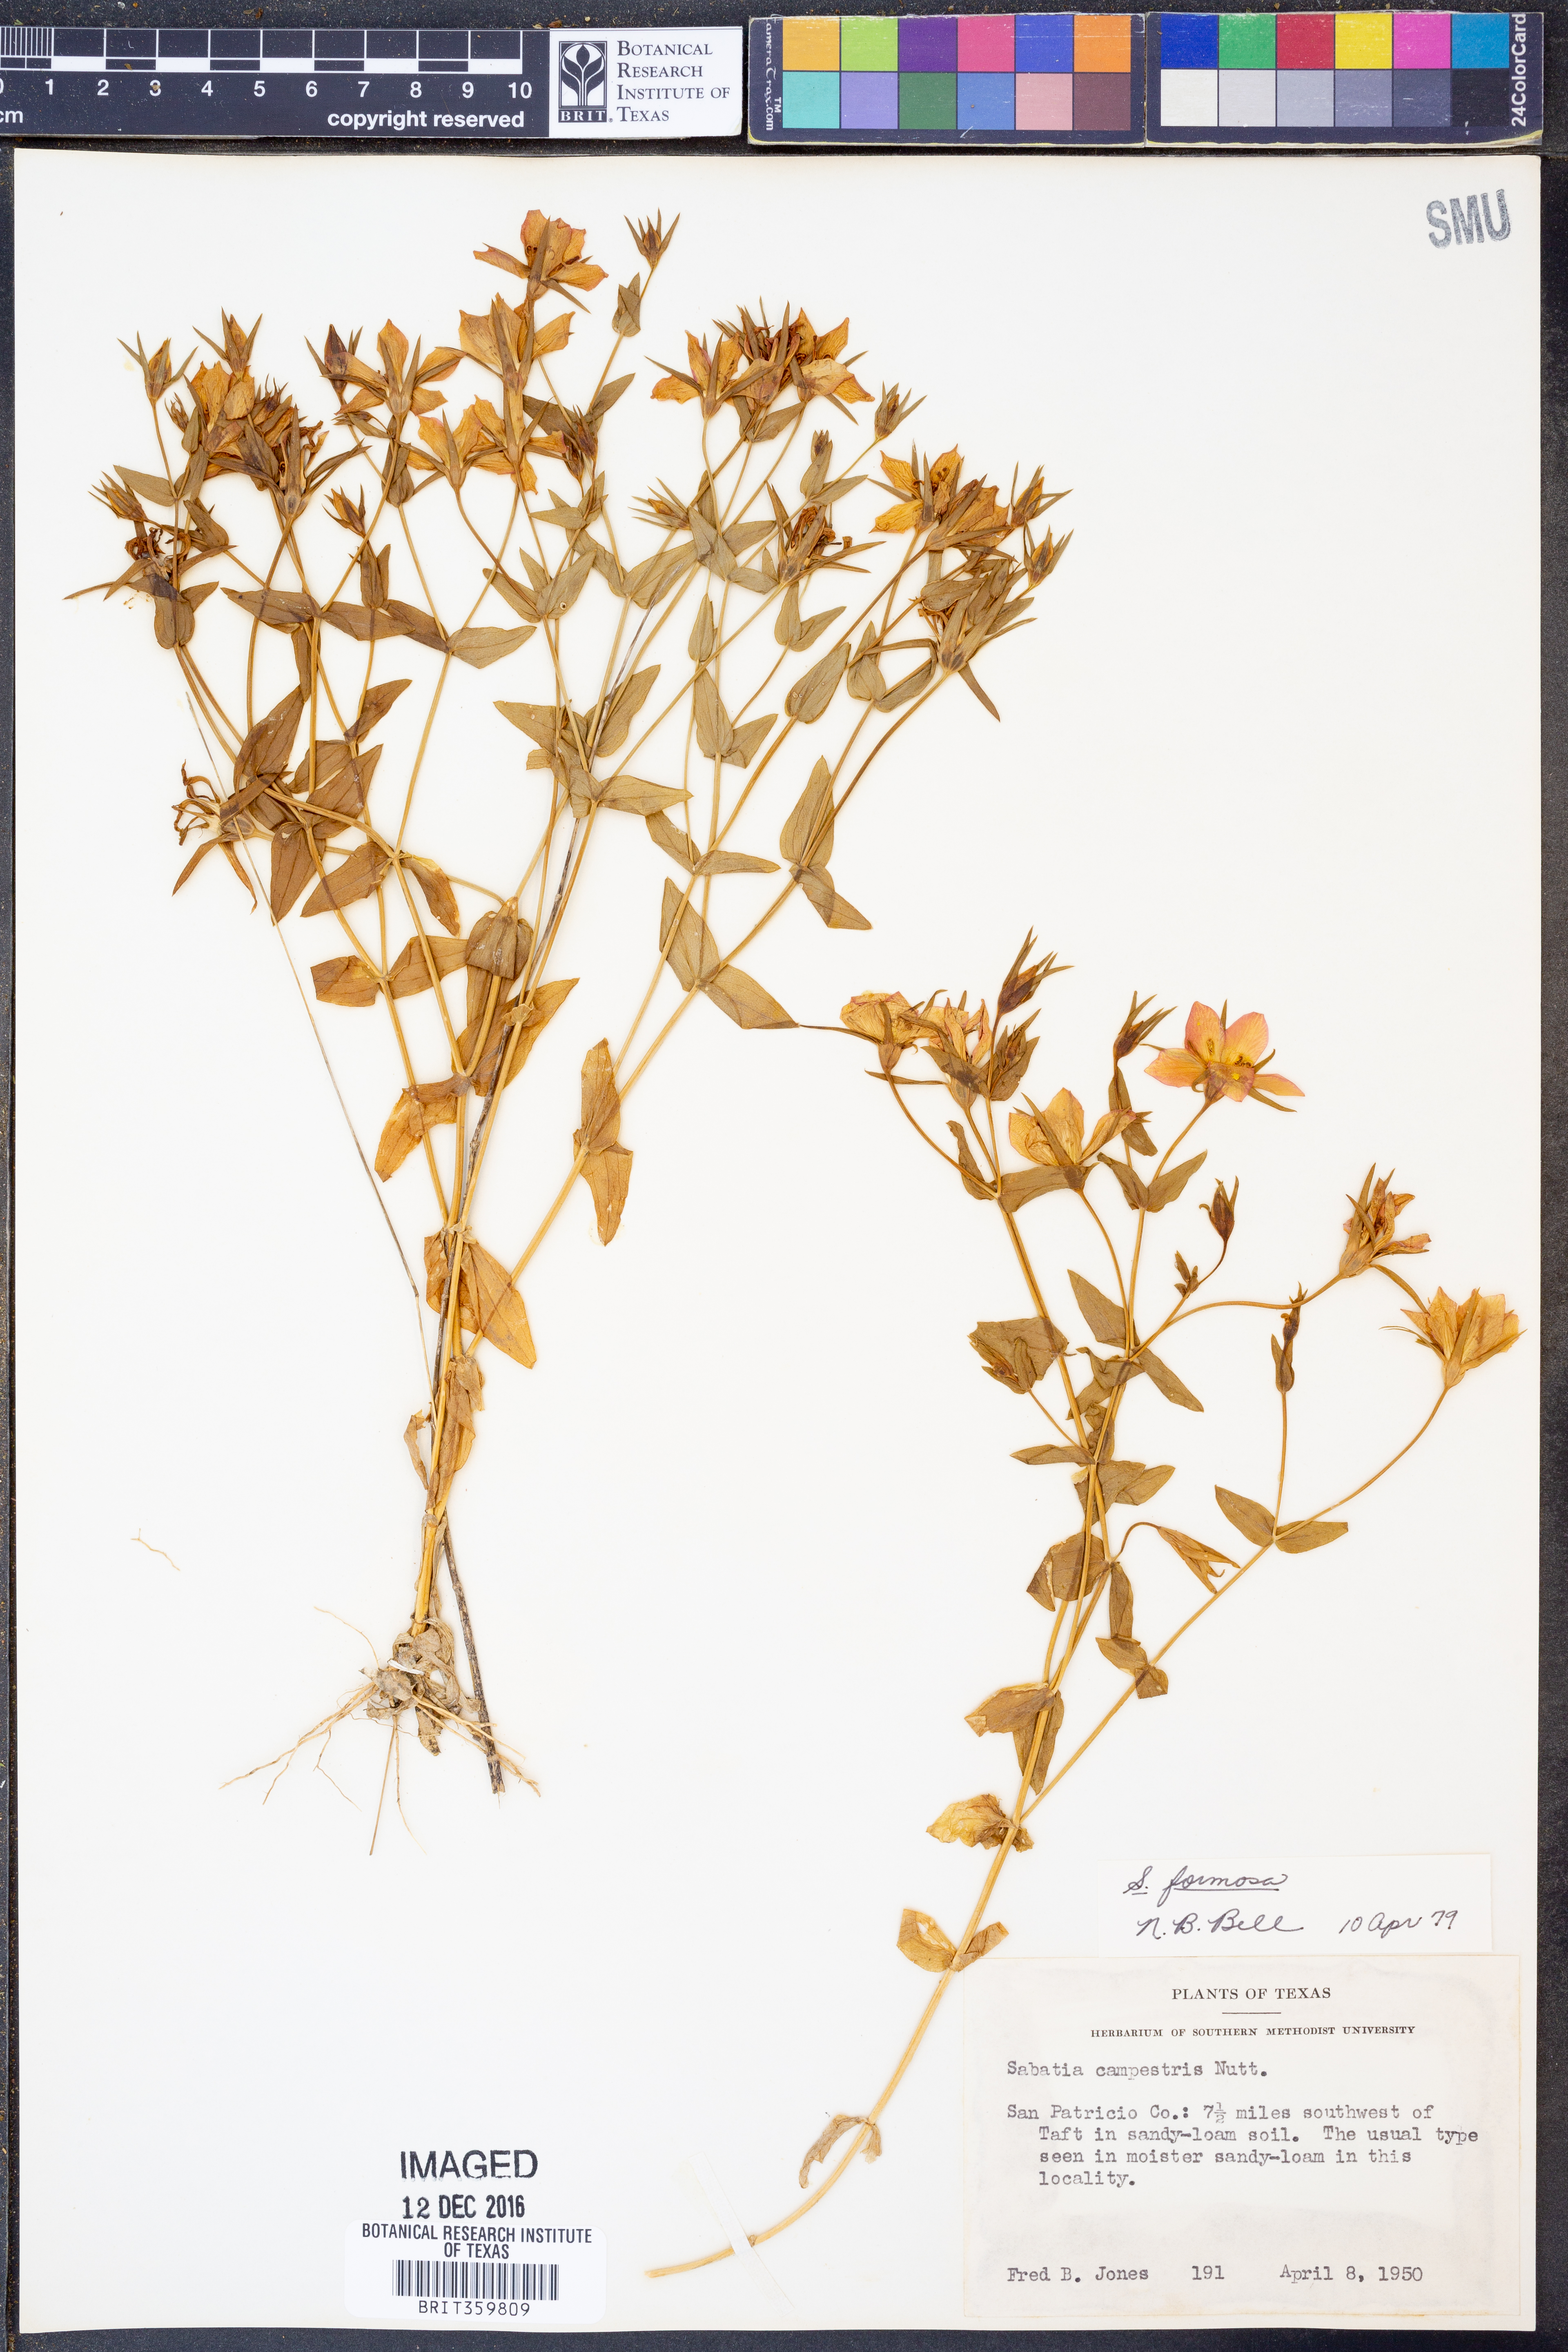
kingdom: Plantae
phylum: Tracheophyta
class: Magnoliopsida
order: Gentianales
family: Gentianaceae
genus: Sabatia
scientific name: Sabatia formosa
